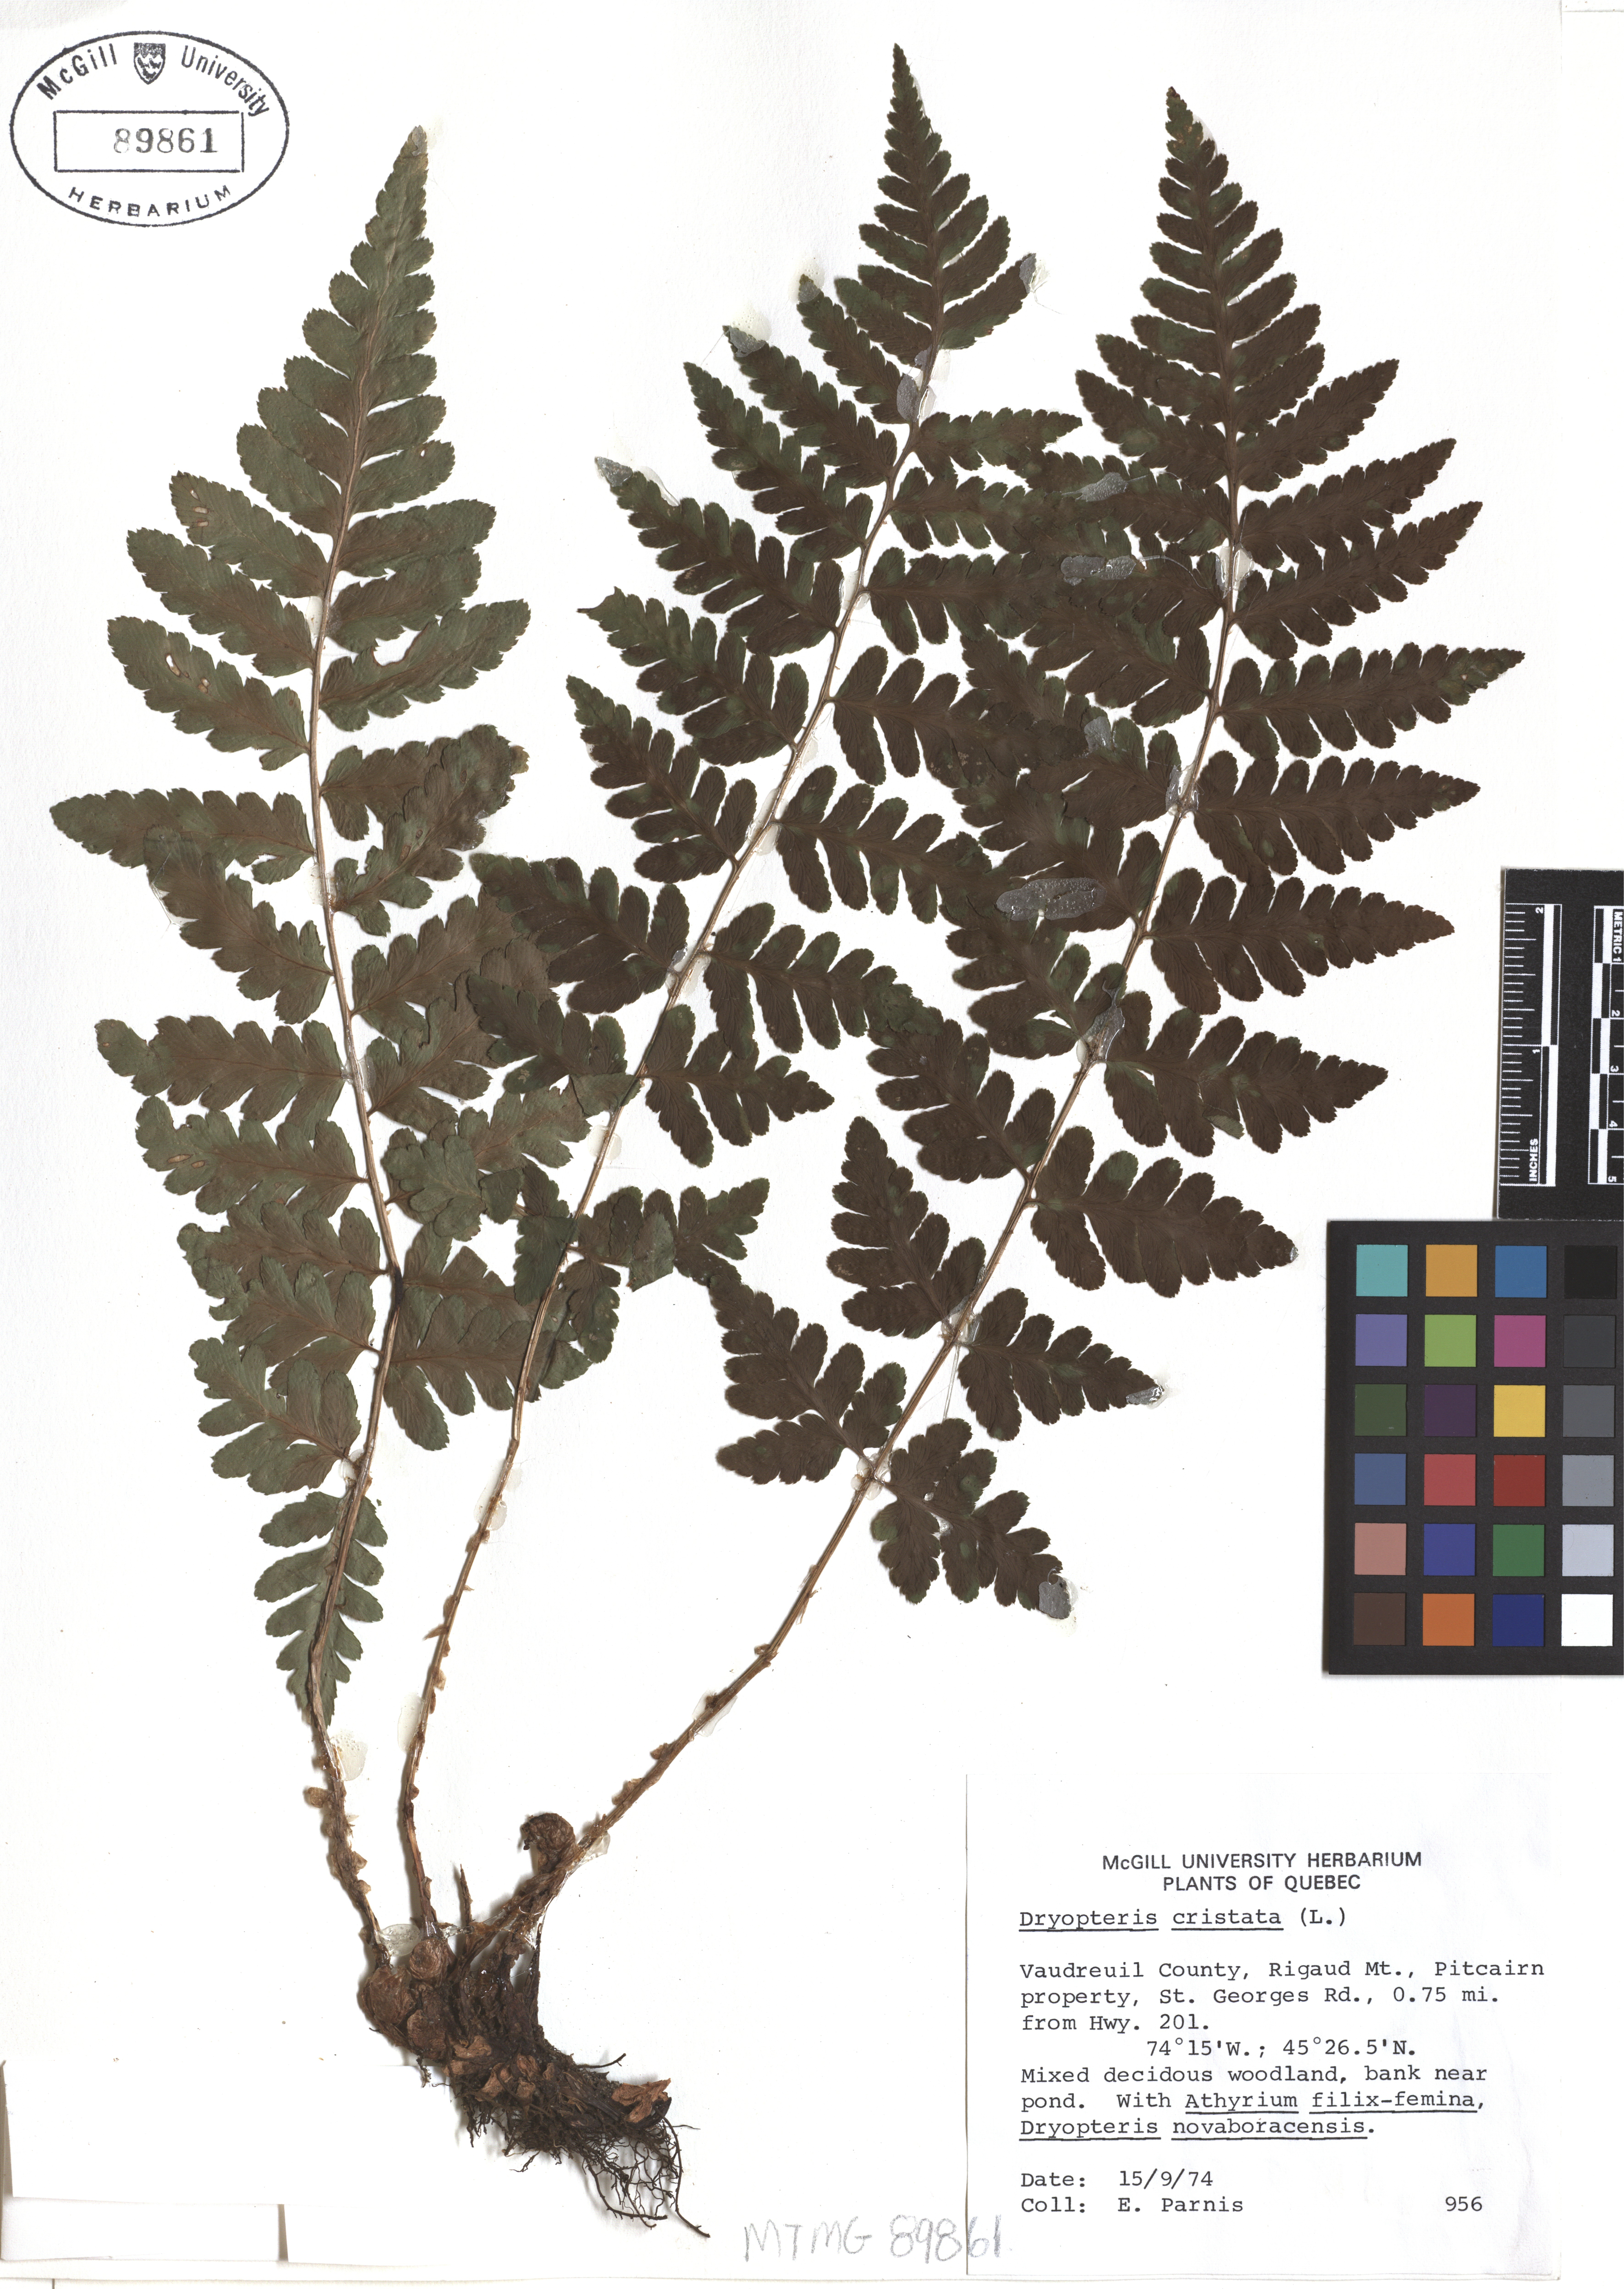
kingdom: Plantae
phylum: Tracheophyta
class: Polypodiopsida
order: Polypodiales
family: Dryopteridaceae
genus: Dryopteris
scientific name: Dryopteris cristata
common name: Crested wood fern
